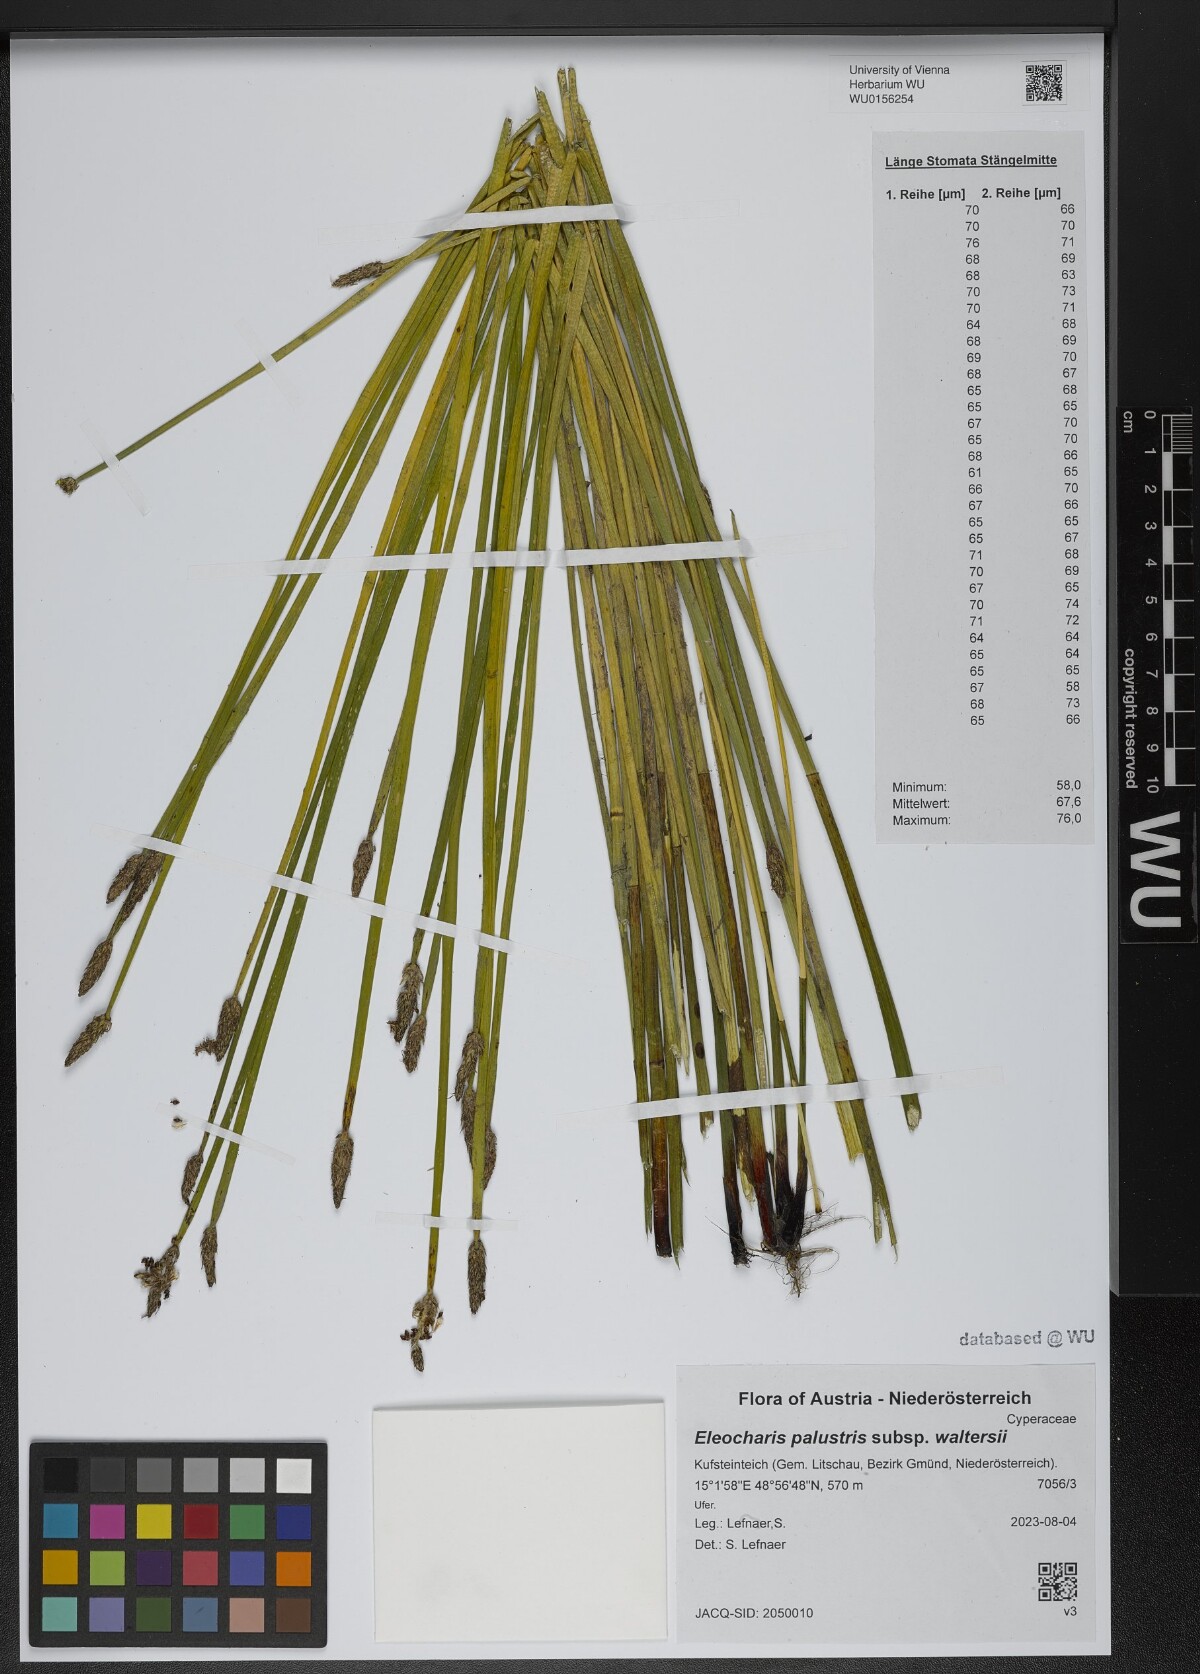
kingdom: Plantae
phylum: Tracheophyta
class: Liliopsida
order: Poales
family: Cyperaceae
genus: Eleocharis
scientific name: Eleocharis palustris
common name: Common spike-rush
